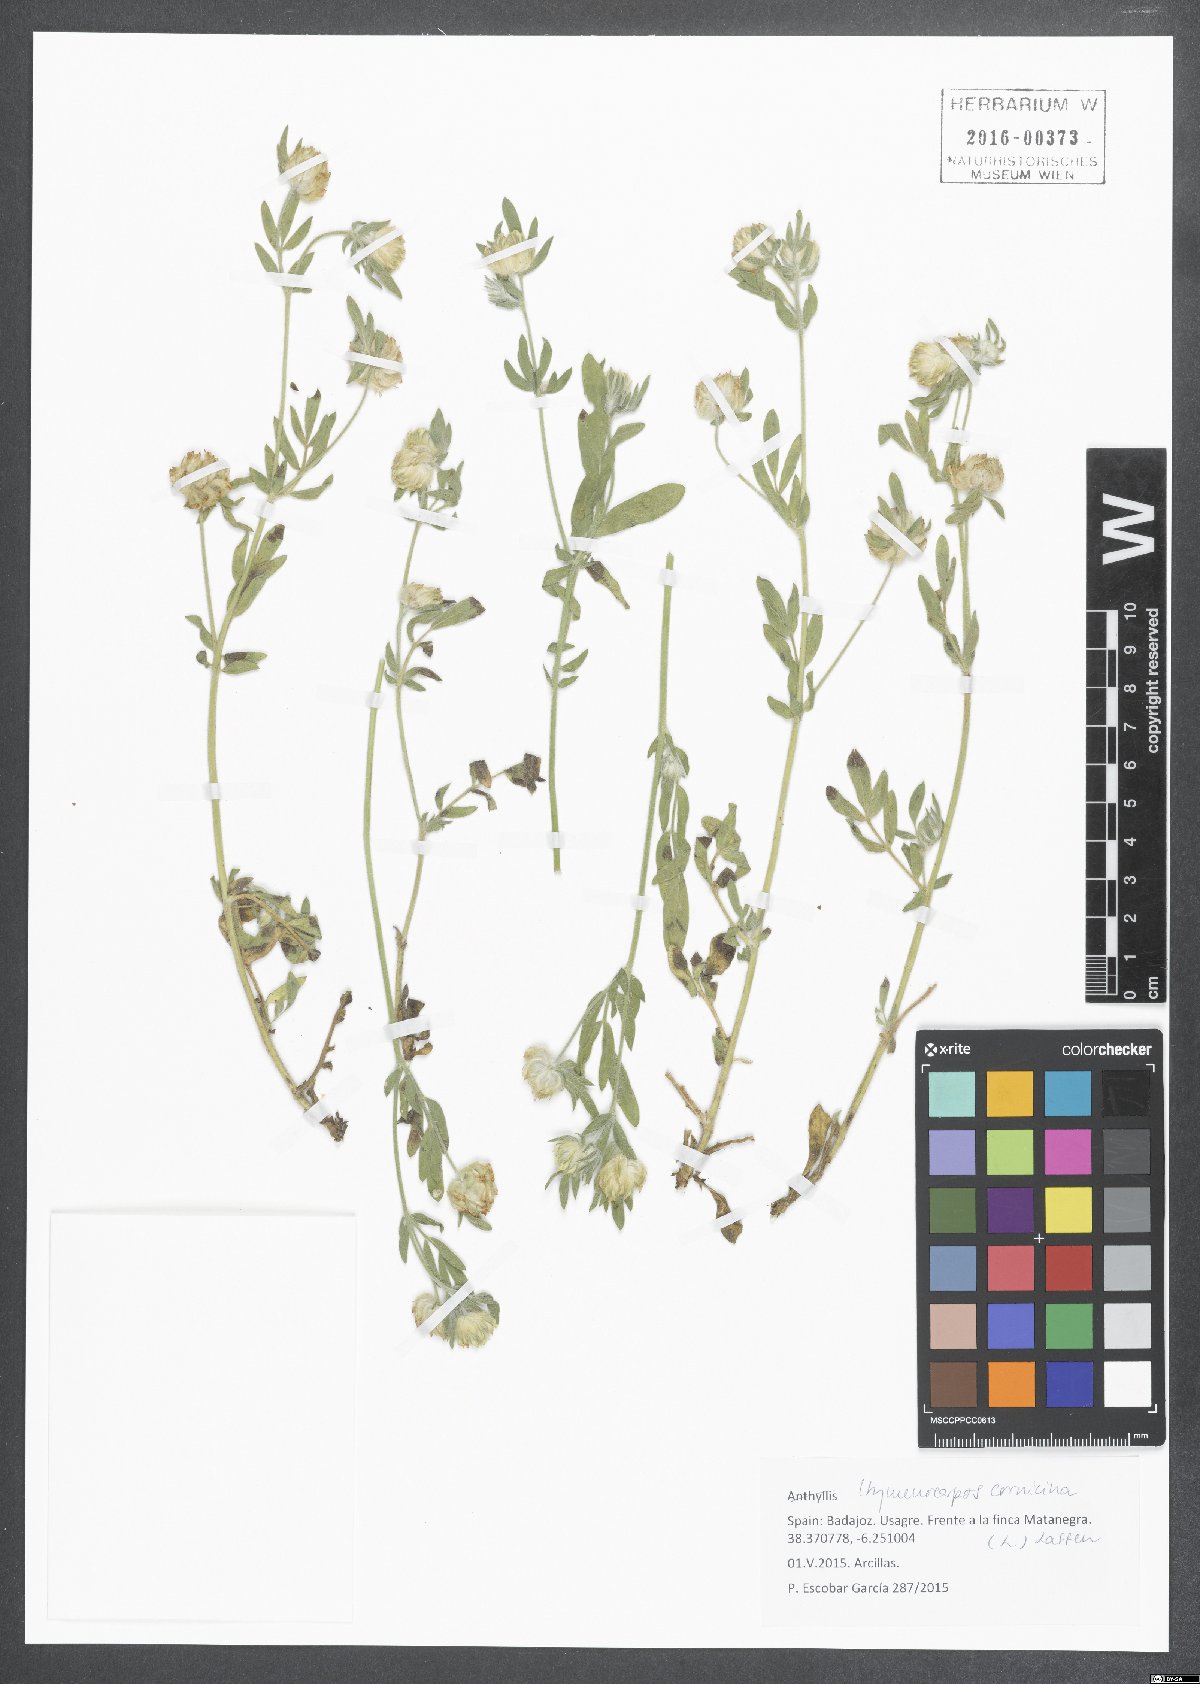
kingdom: Plantae
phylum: Tracheophyta
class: Magnoliopsida
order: Fabales
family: Fabaceae
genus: Anthyllis
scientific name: Anthyllis cornicina
